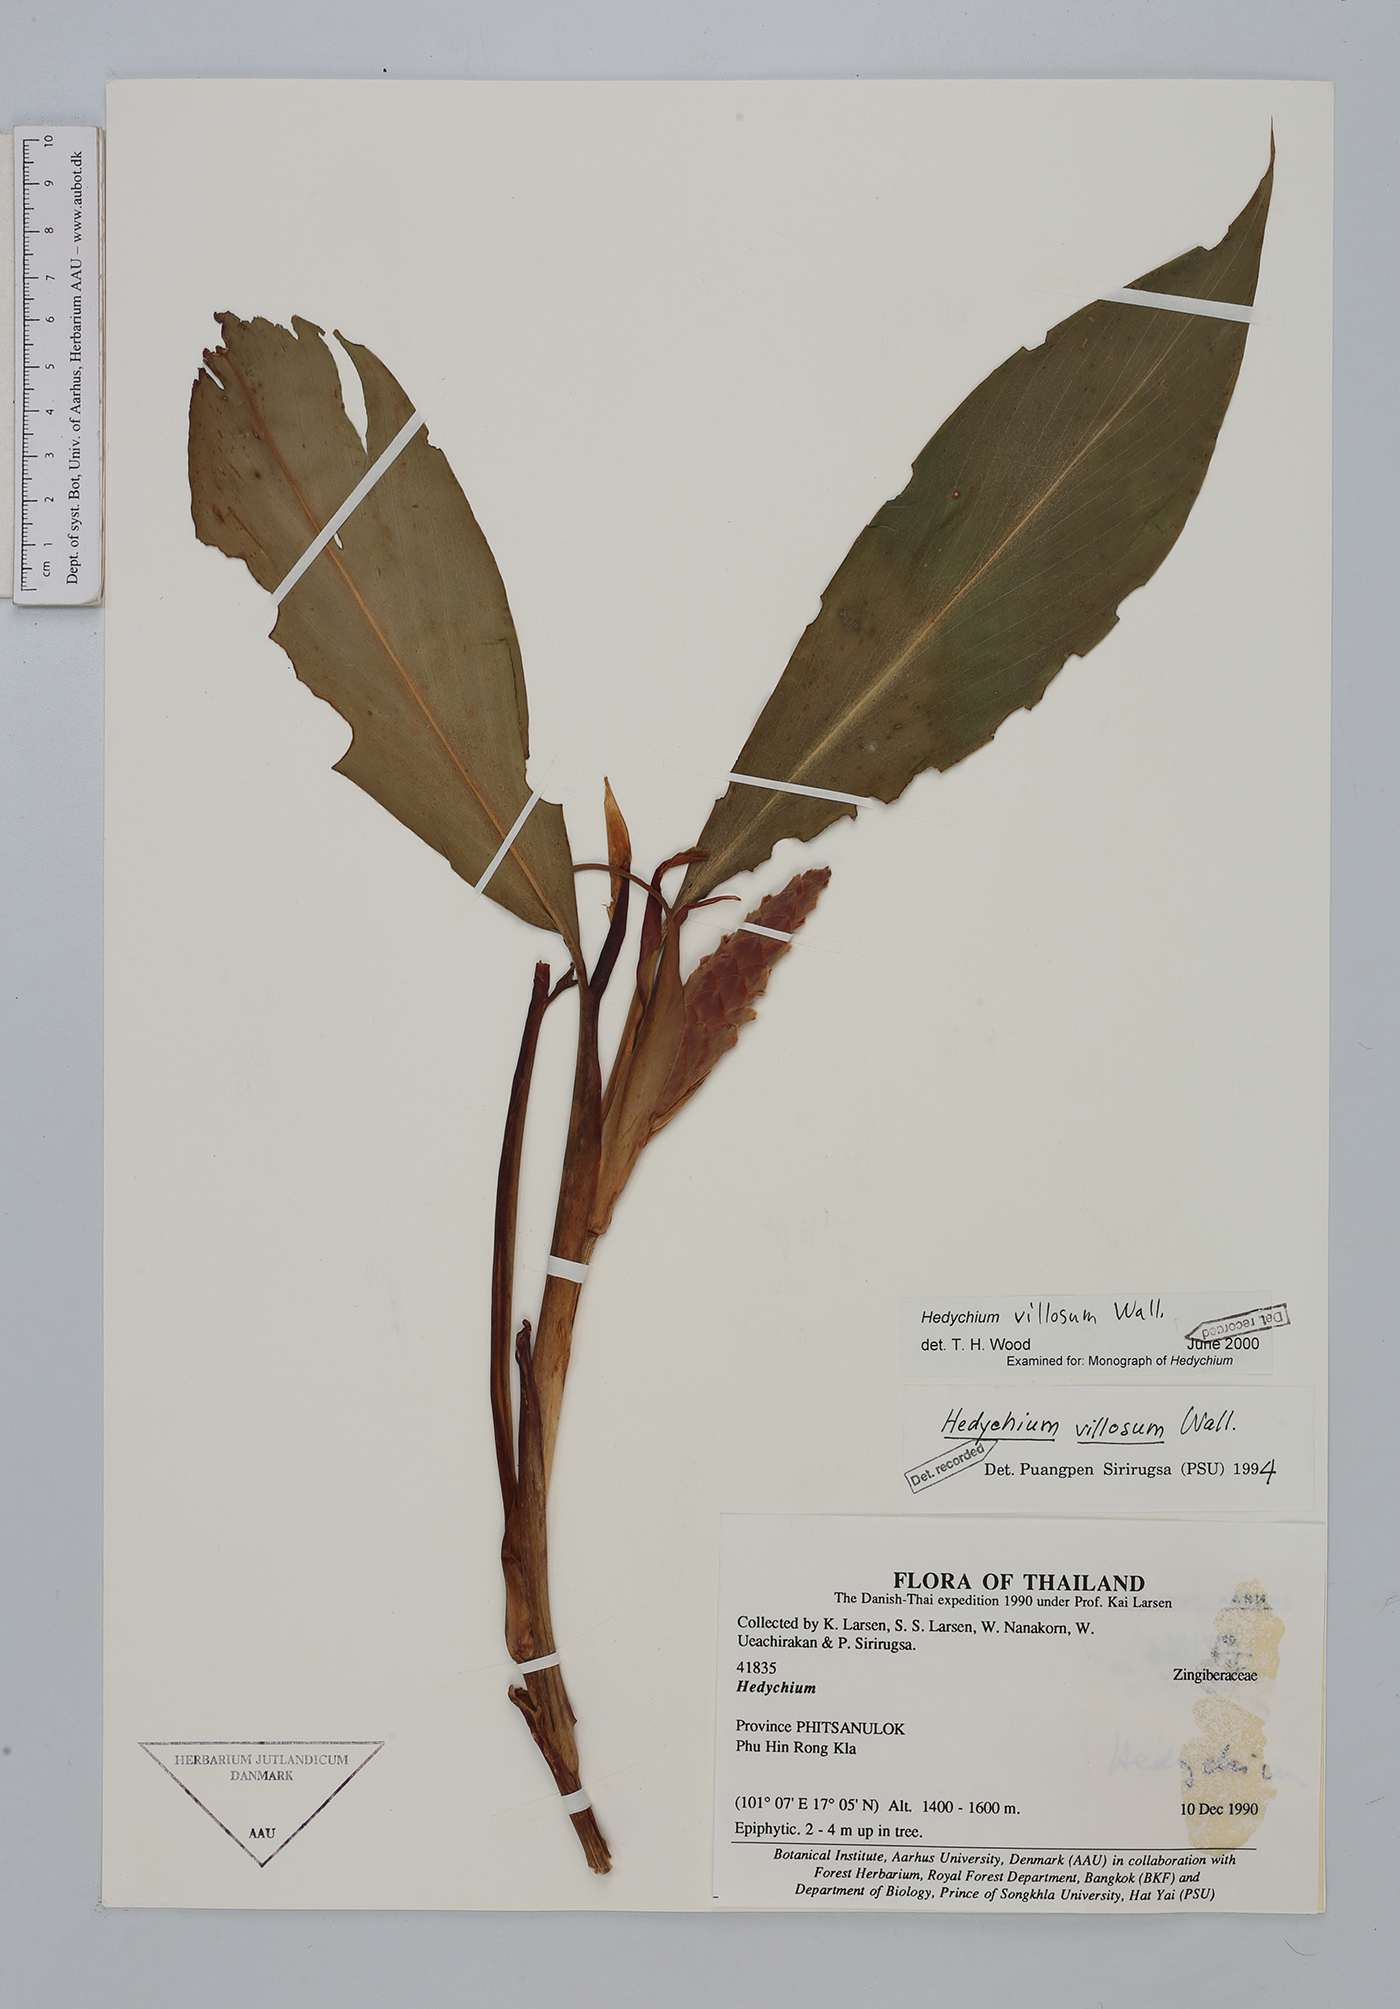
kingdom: Plantae
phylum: Tracheophyta
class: Liliopsida
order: Zingiberales
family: Zingiberaceae
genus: Hedychium
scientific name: Hedychium villosum
